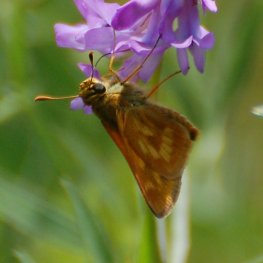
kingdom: Animalia
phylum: Arthropoda
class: Insecta
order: Lepidoptera
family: Hesperiidae
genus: Polites
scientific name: Polites
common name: Long Dash Skipper
